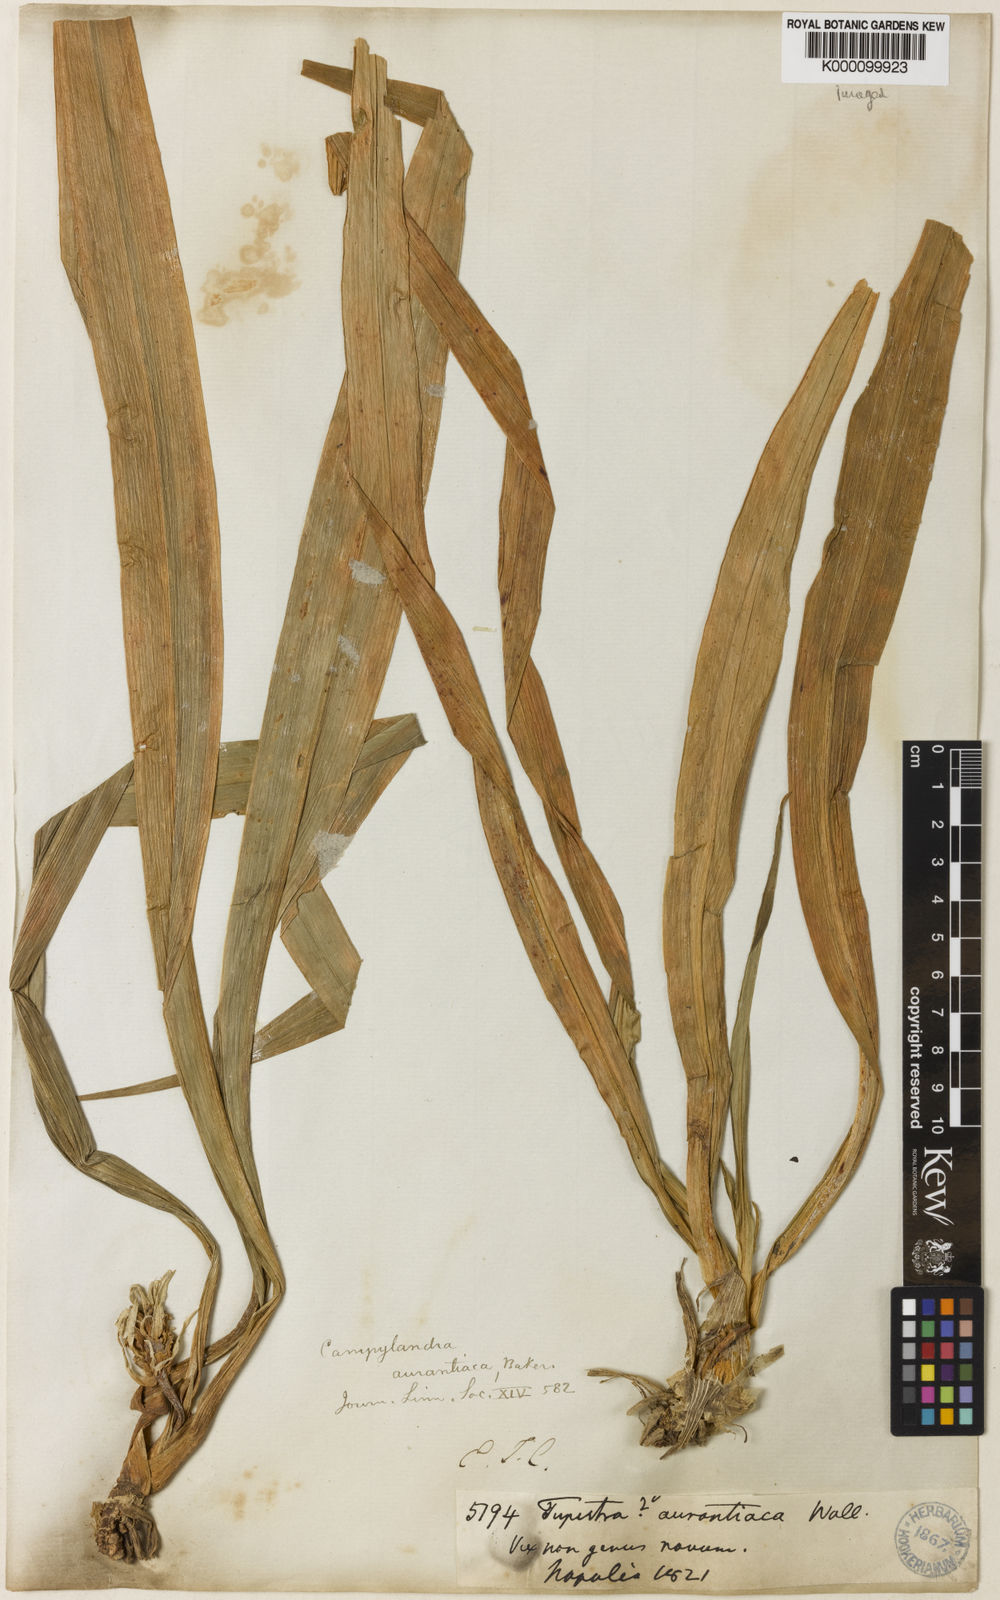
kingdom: Plantae
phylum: Tracheophyta
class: Liliopsida
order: Asparagales
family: Asparagaceae
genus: Rohdea
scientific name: Rohdea nepalensis
